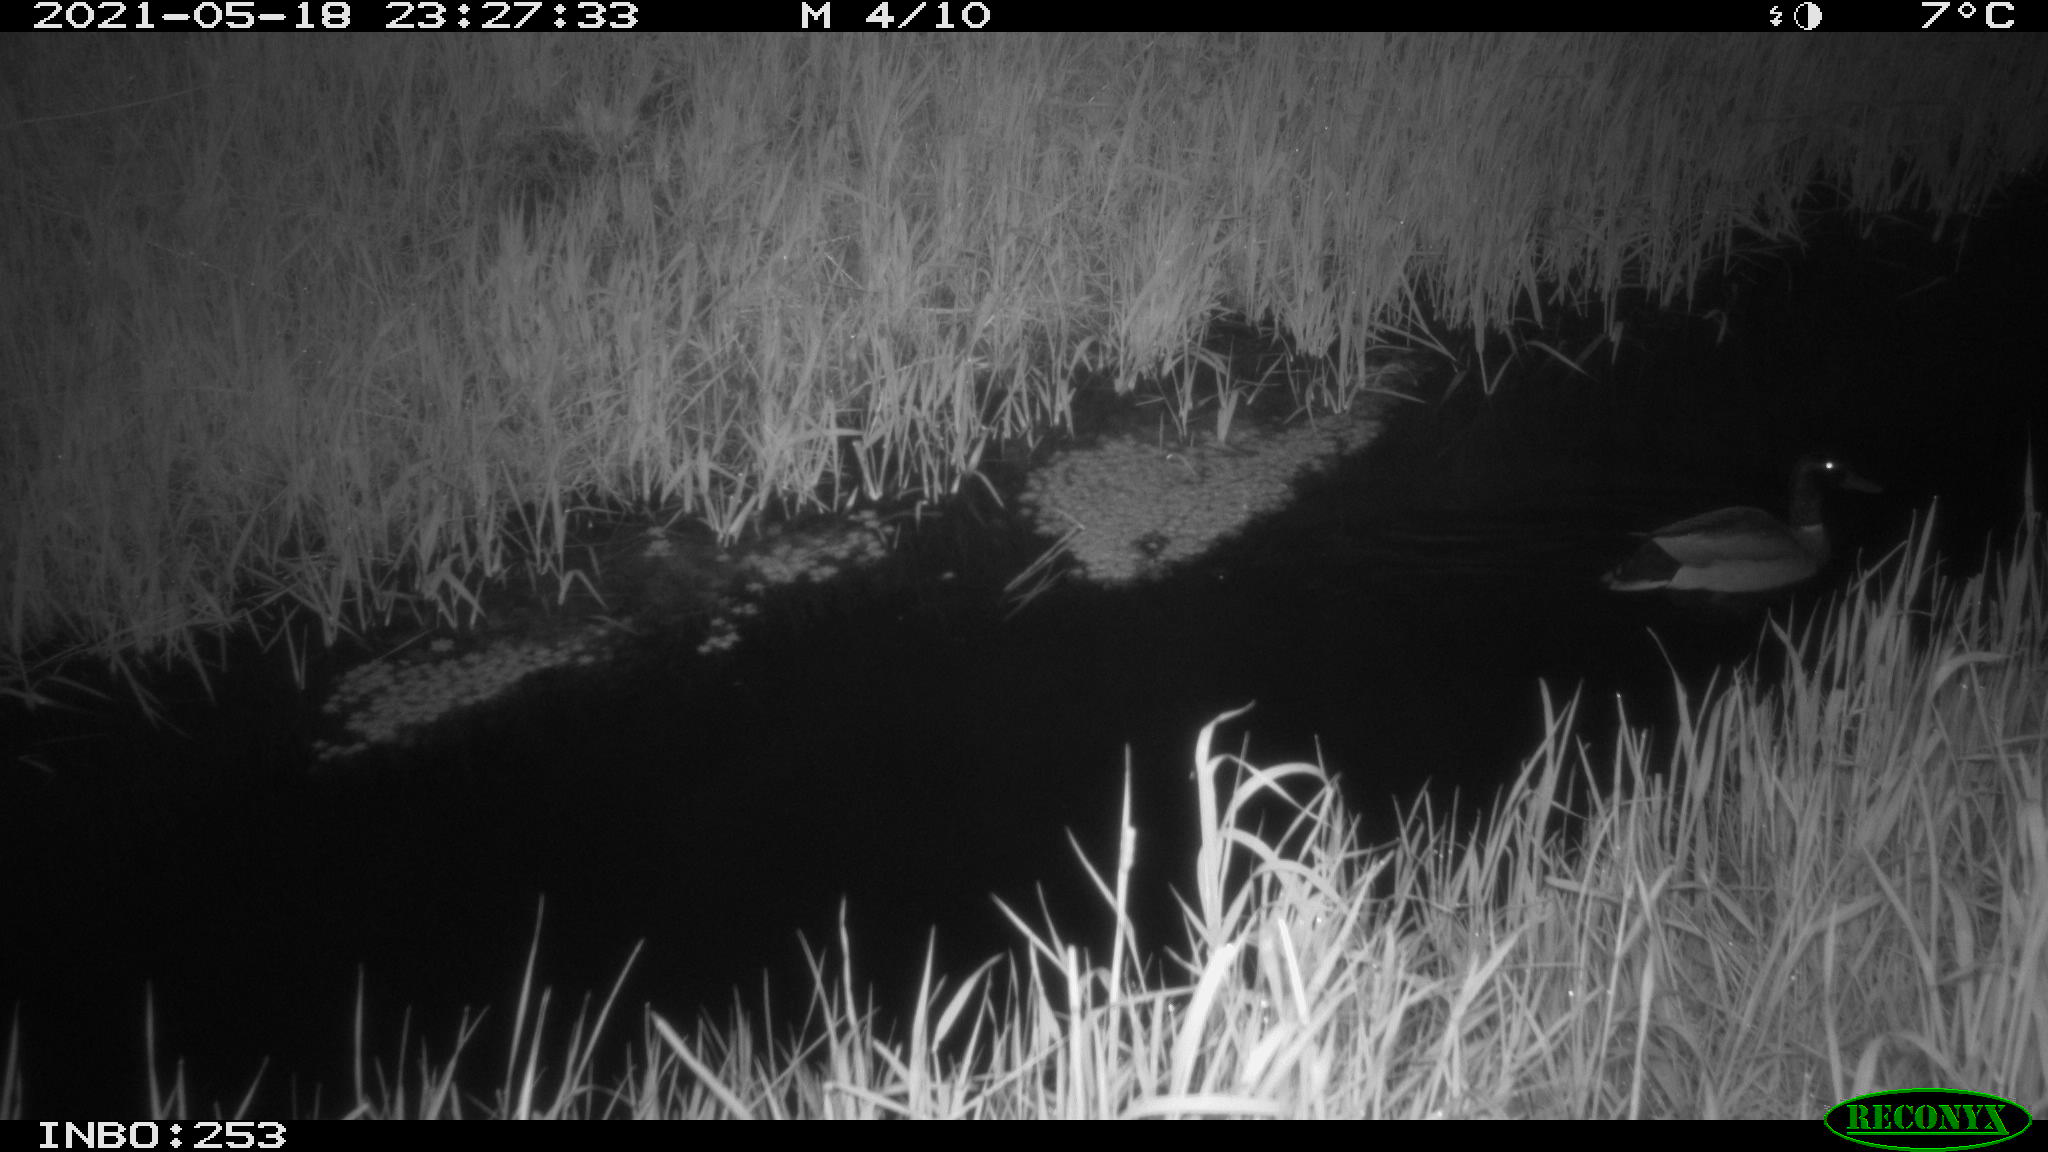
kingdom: Animalia
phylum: Chordata
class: Aves
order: Anseriformes
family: Anatidae
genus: Anas
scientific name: Anas platyrhynchos
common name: Mallard
